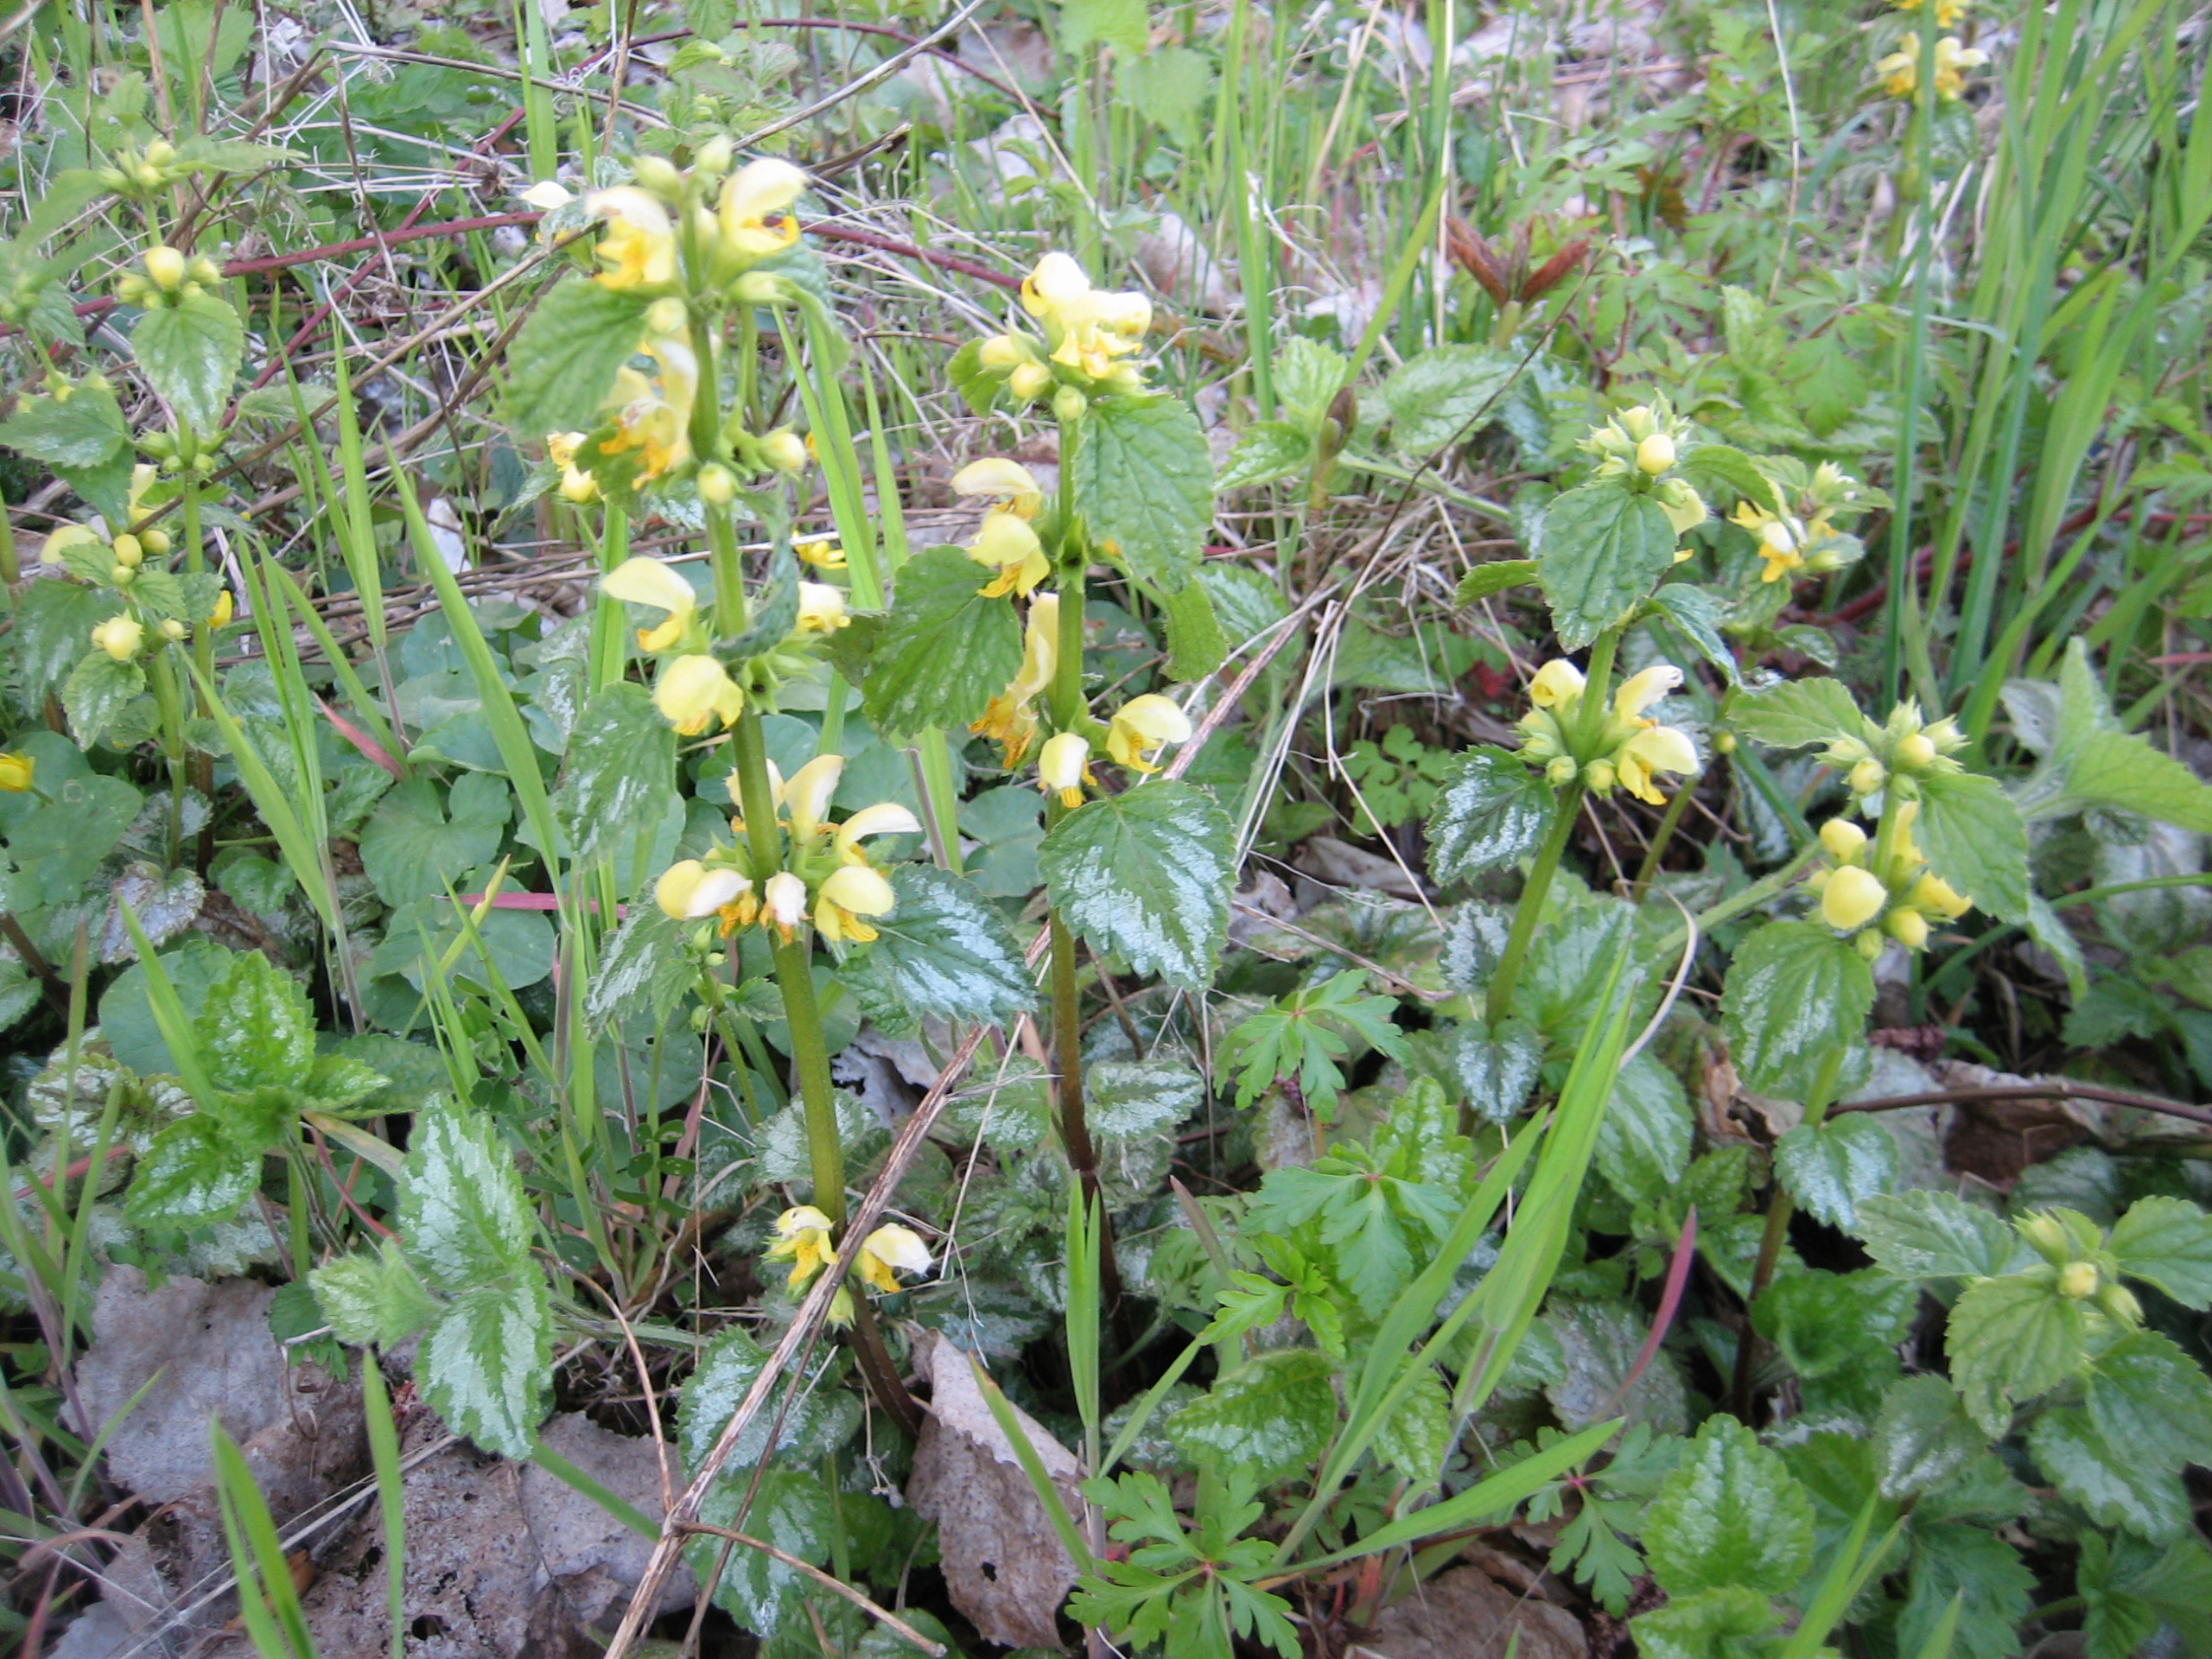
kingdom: Plantae
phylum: Tracheophyta
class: Magnoliopsida
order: Lamiales
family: Lamiaceae
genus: Lamium
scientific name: Lamium galeobdolon
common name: Have-guldnælde
